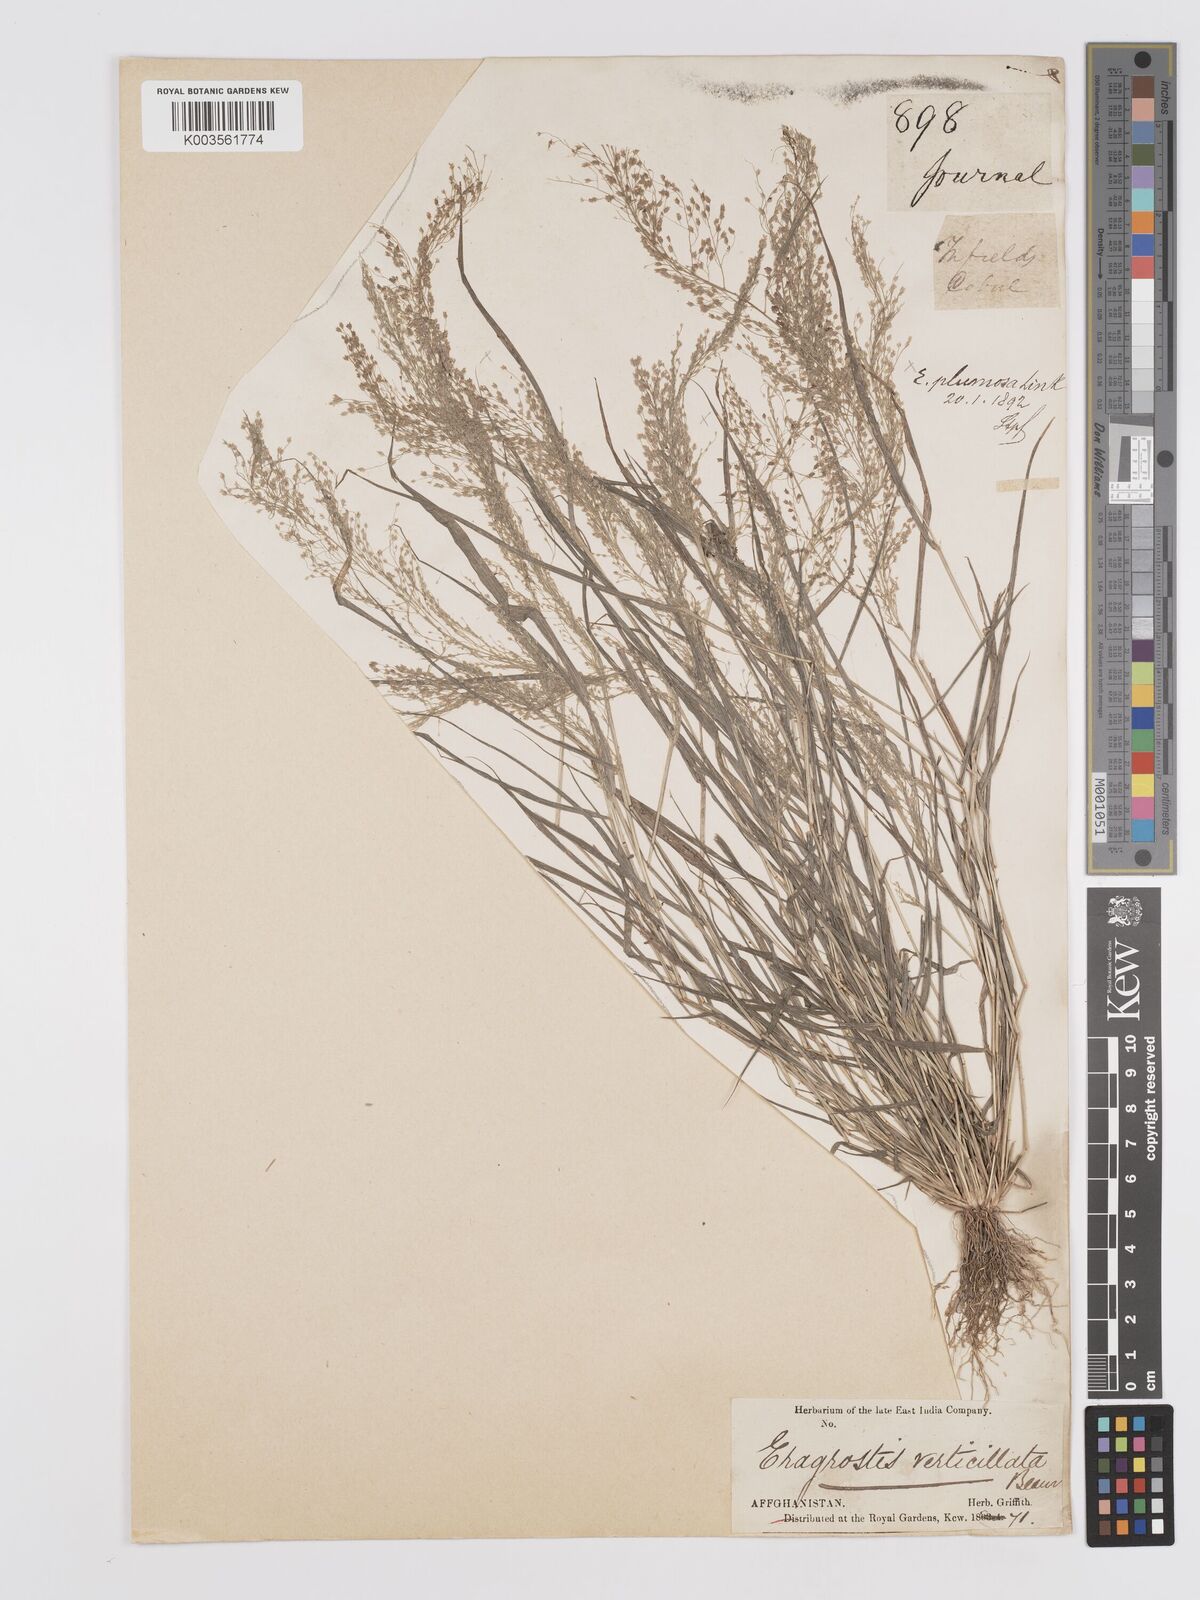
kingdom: Plantae
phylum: Tracheophyta
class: Liliopsida
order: Poales
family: Poaceae
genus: Eragrostis
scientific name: Eragrostis tenella
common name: Japanese lovegrass
